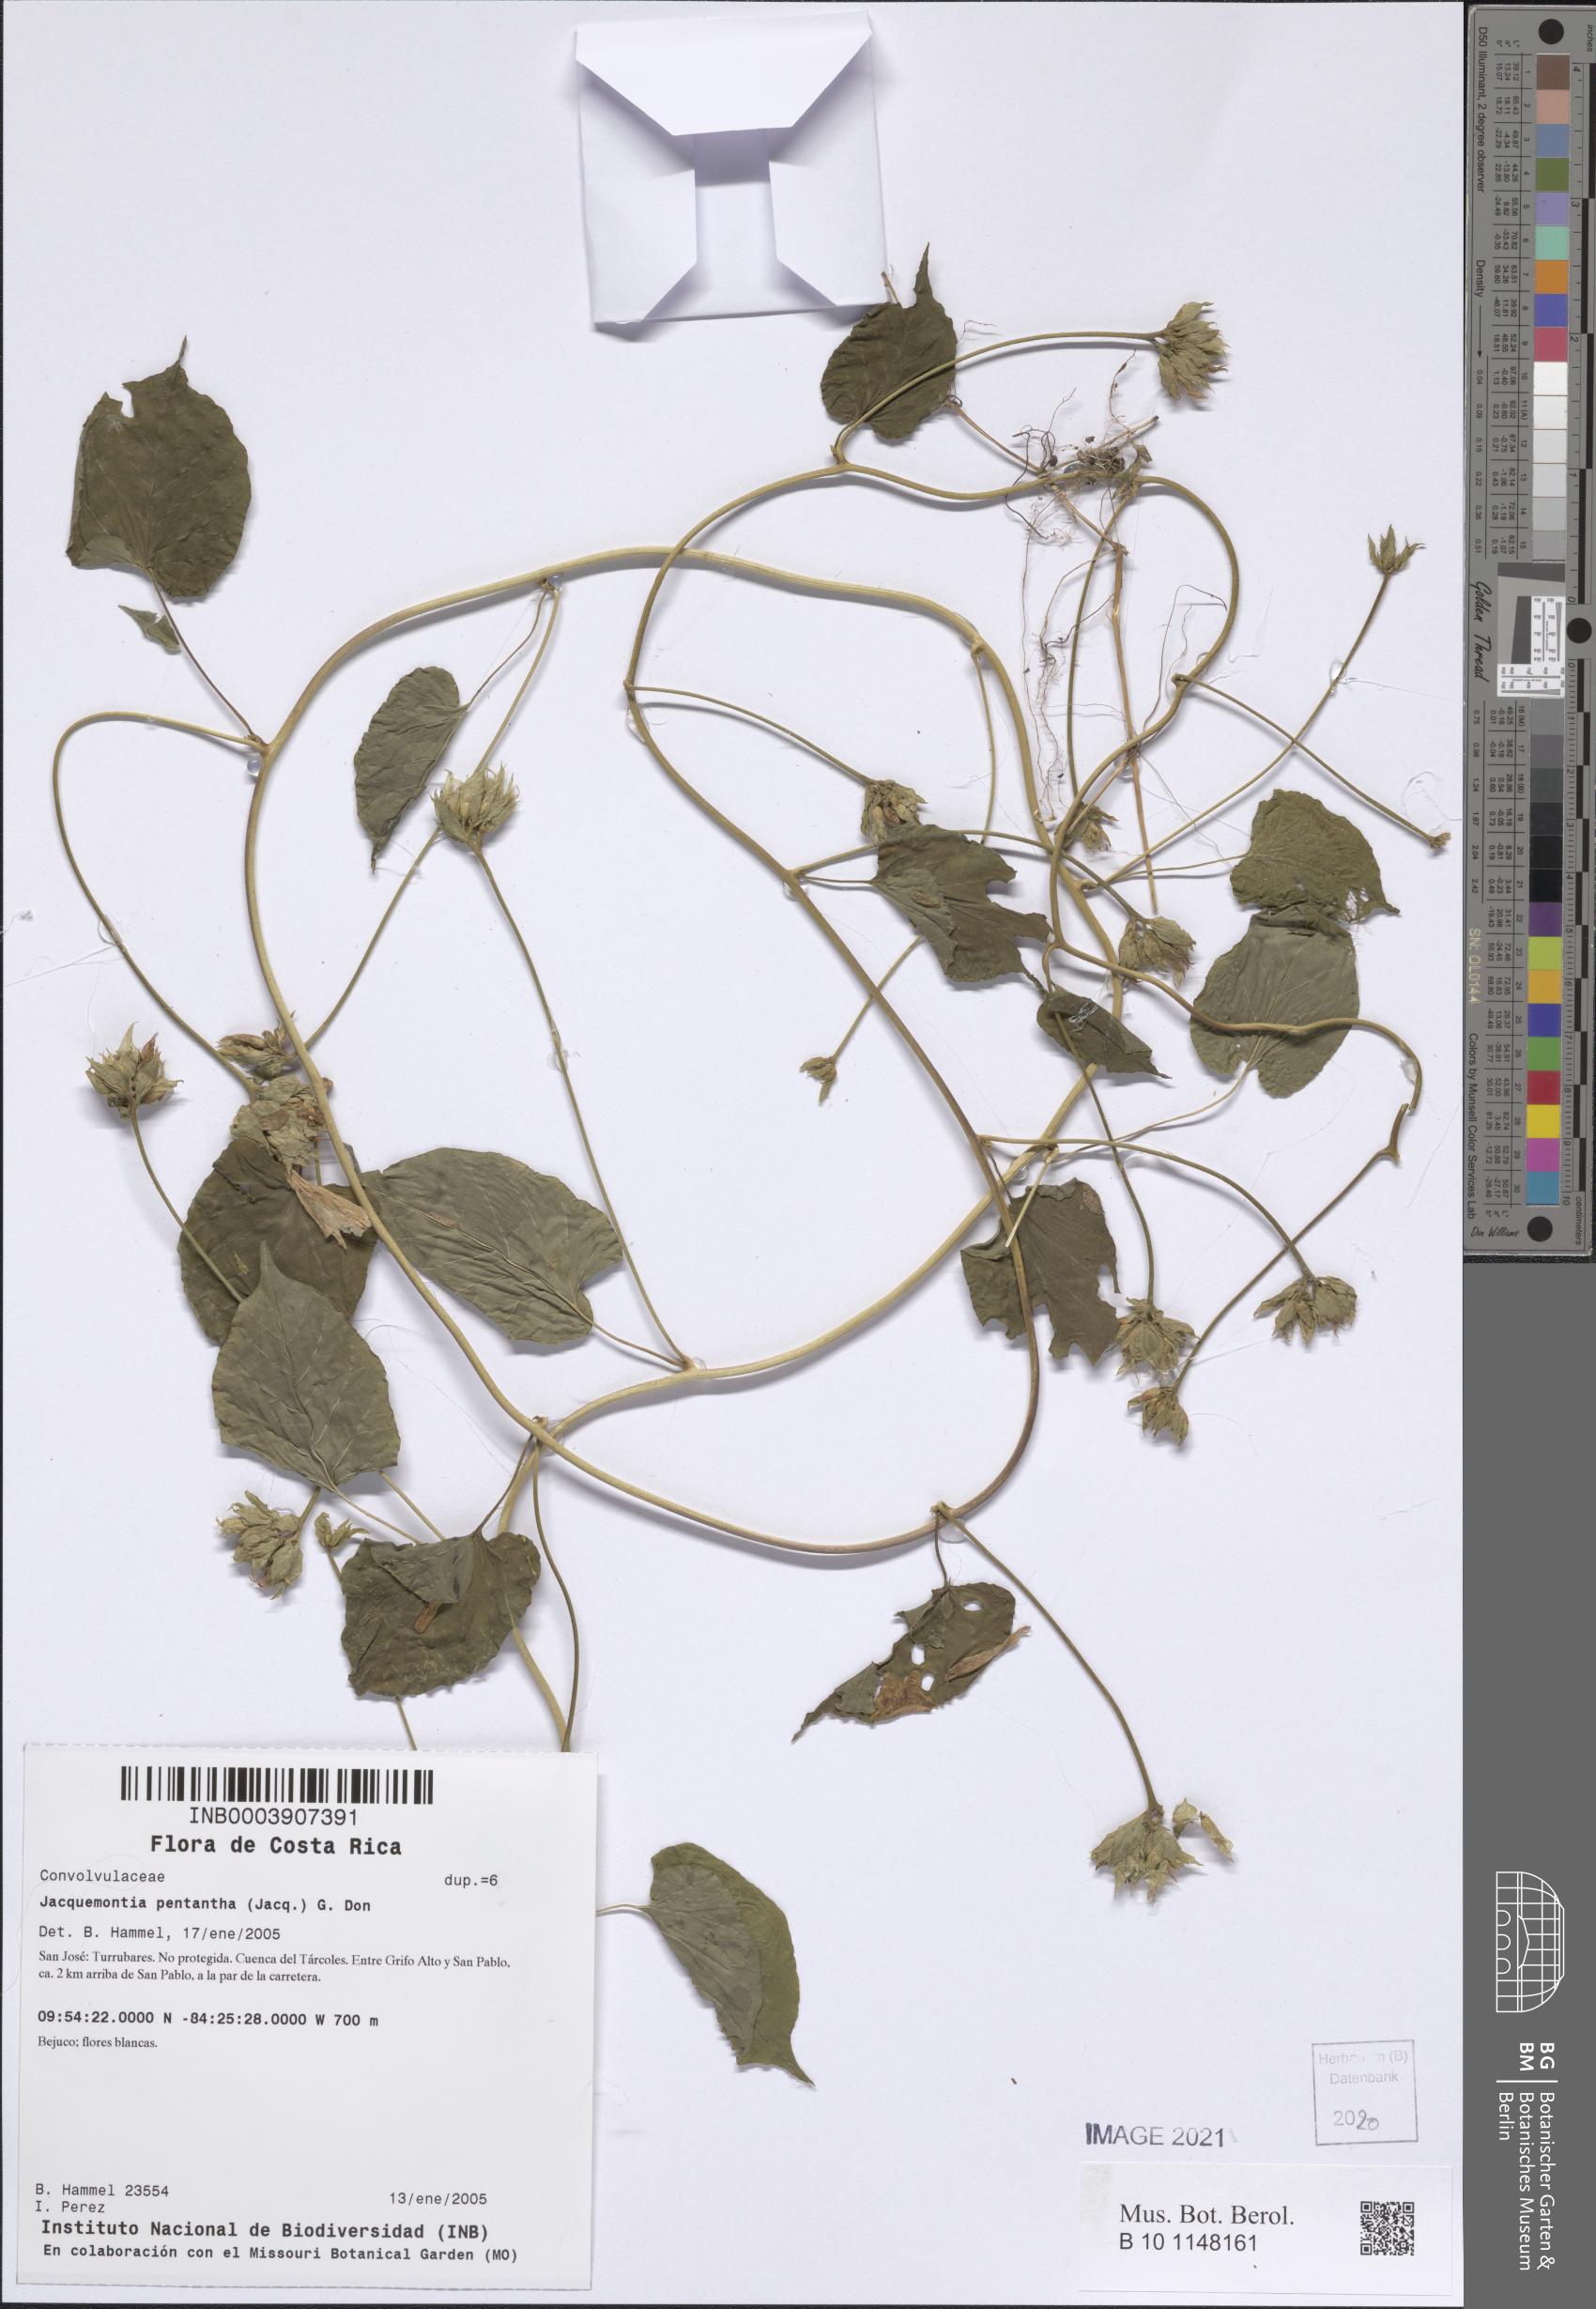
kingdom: Plantae
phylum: Tracheophyta
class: Magnoliopsida
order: Solanales
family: Convolvulaceae
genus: Jacquemontia
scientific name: Jacquemontia pentanthos
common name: Skyblue clustervine
